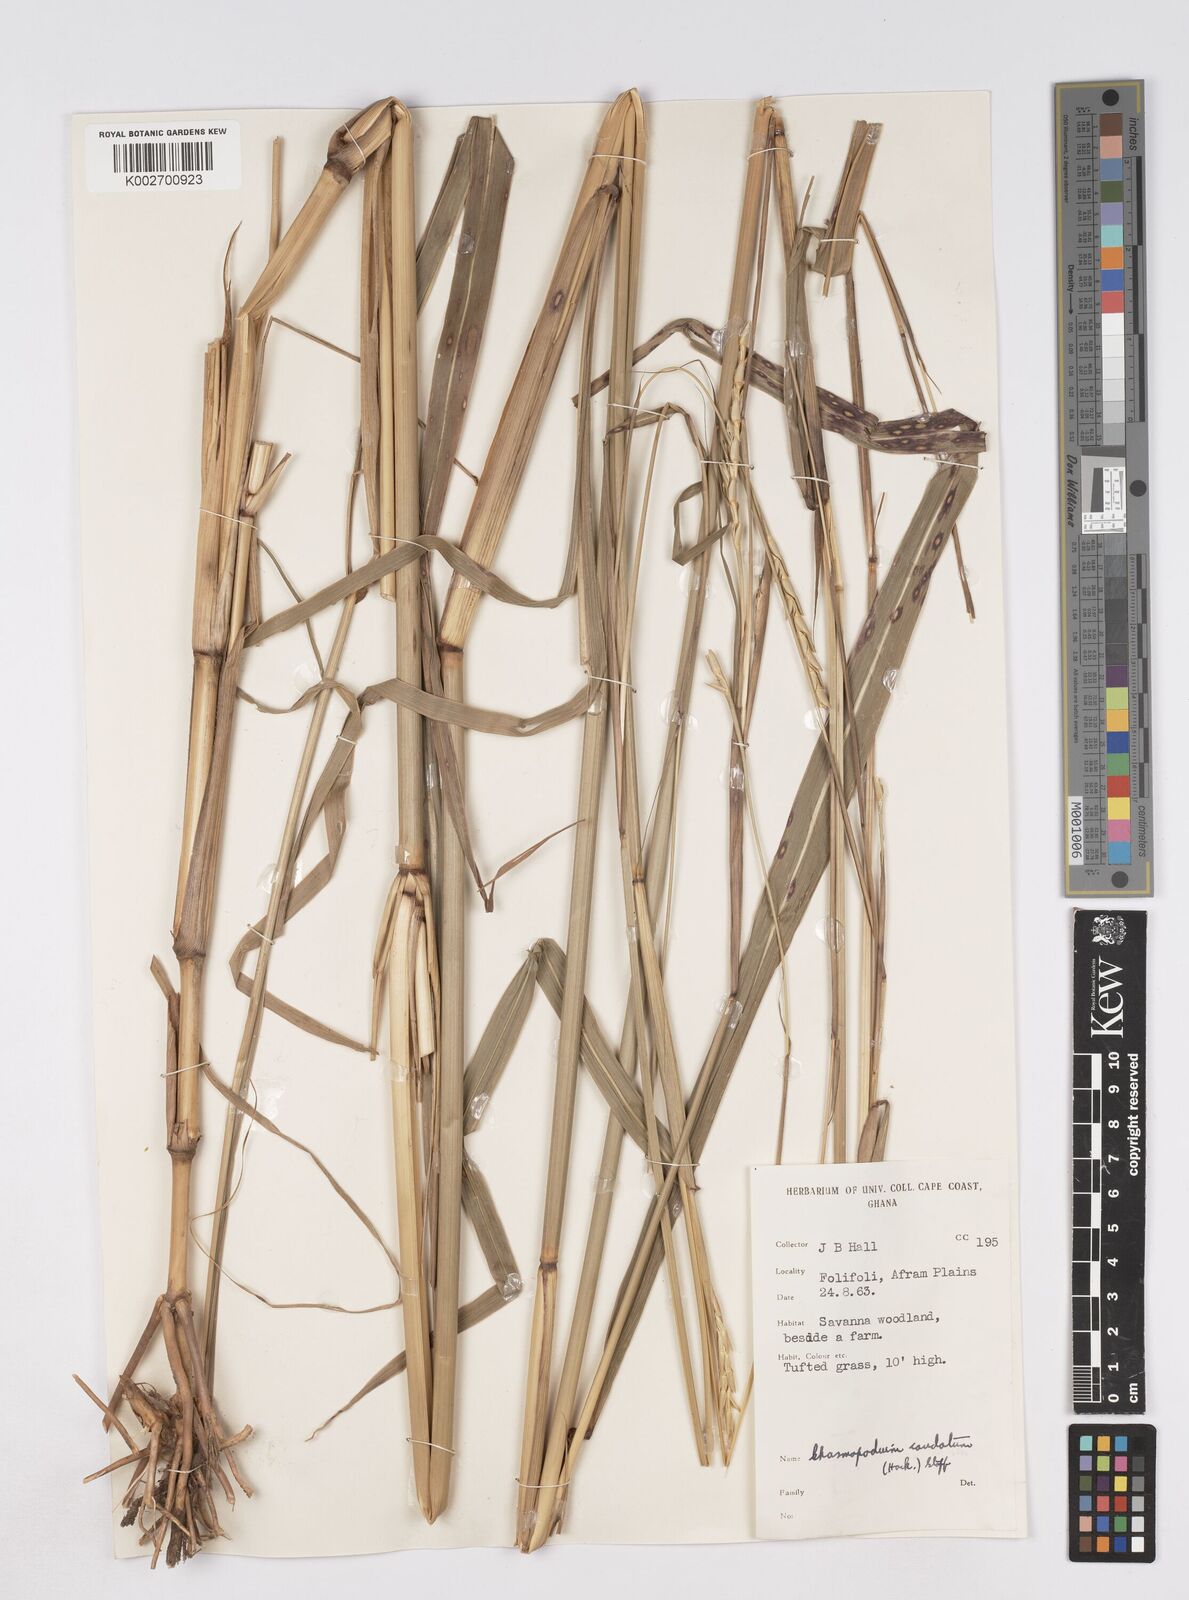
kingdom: Plantae
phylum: Tracheophyta
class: Liliopsida
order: Poales
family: Poaceae
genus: Chasmopodium
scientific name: Chasmopodium caudatum
